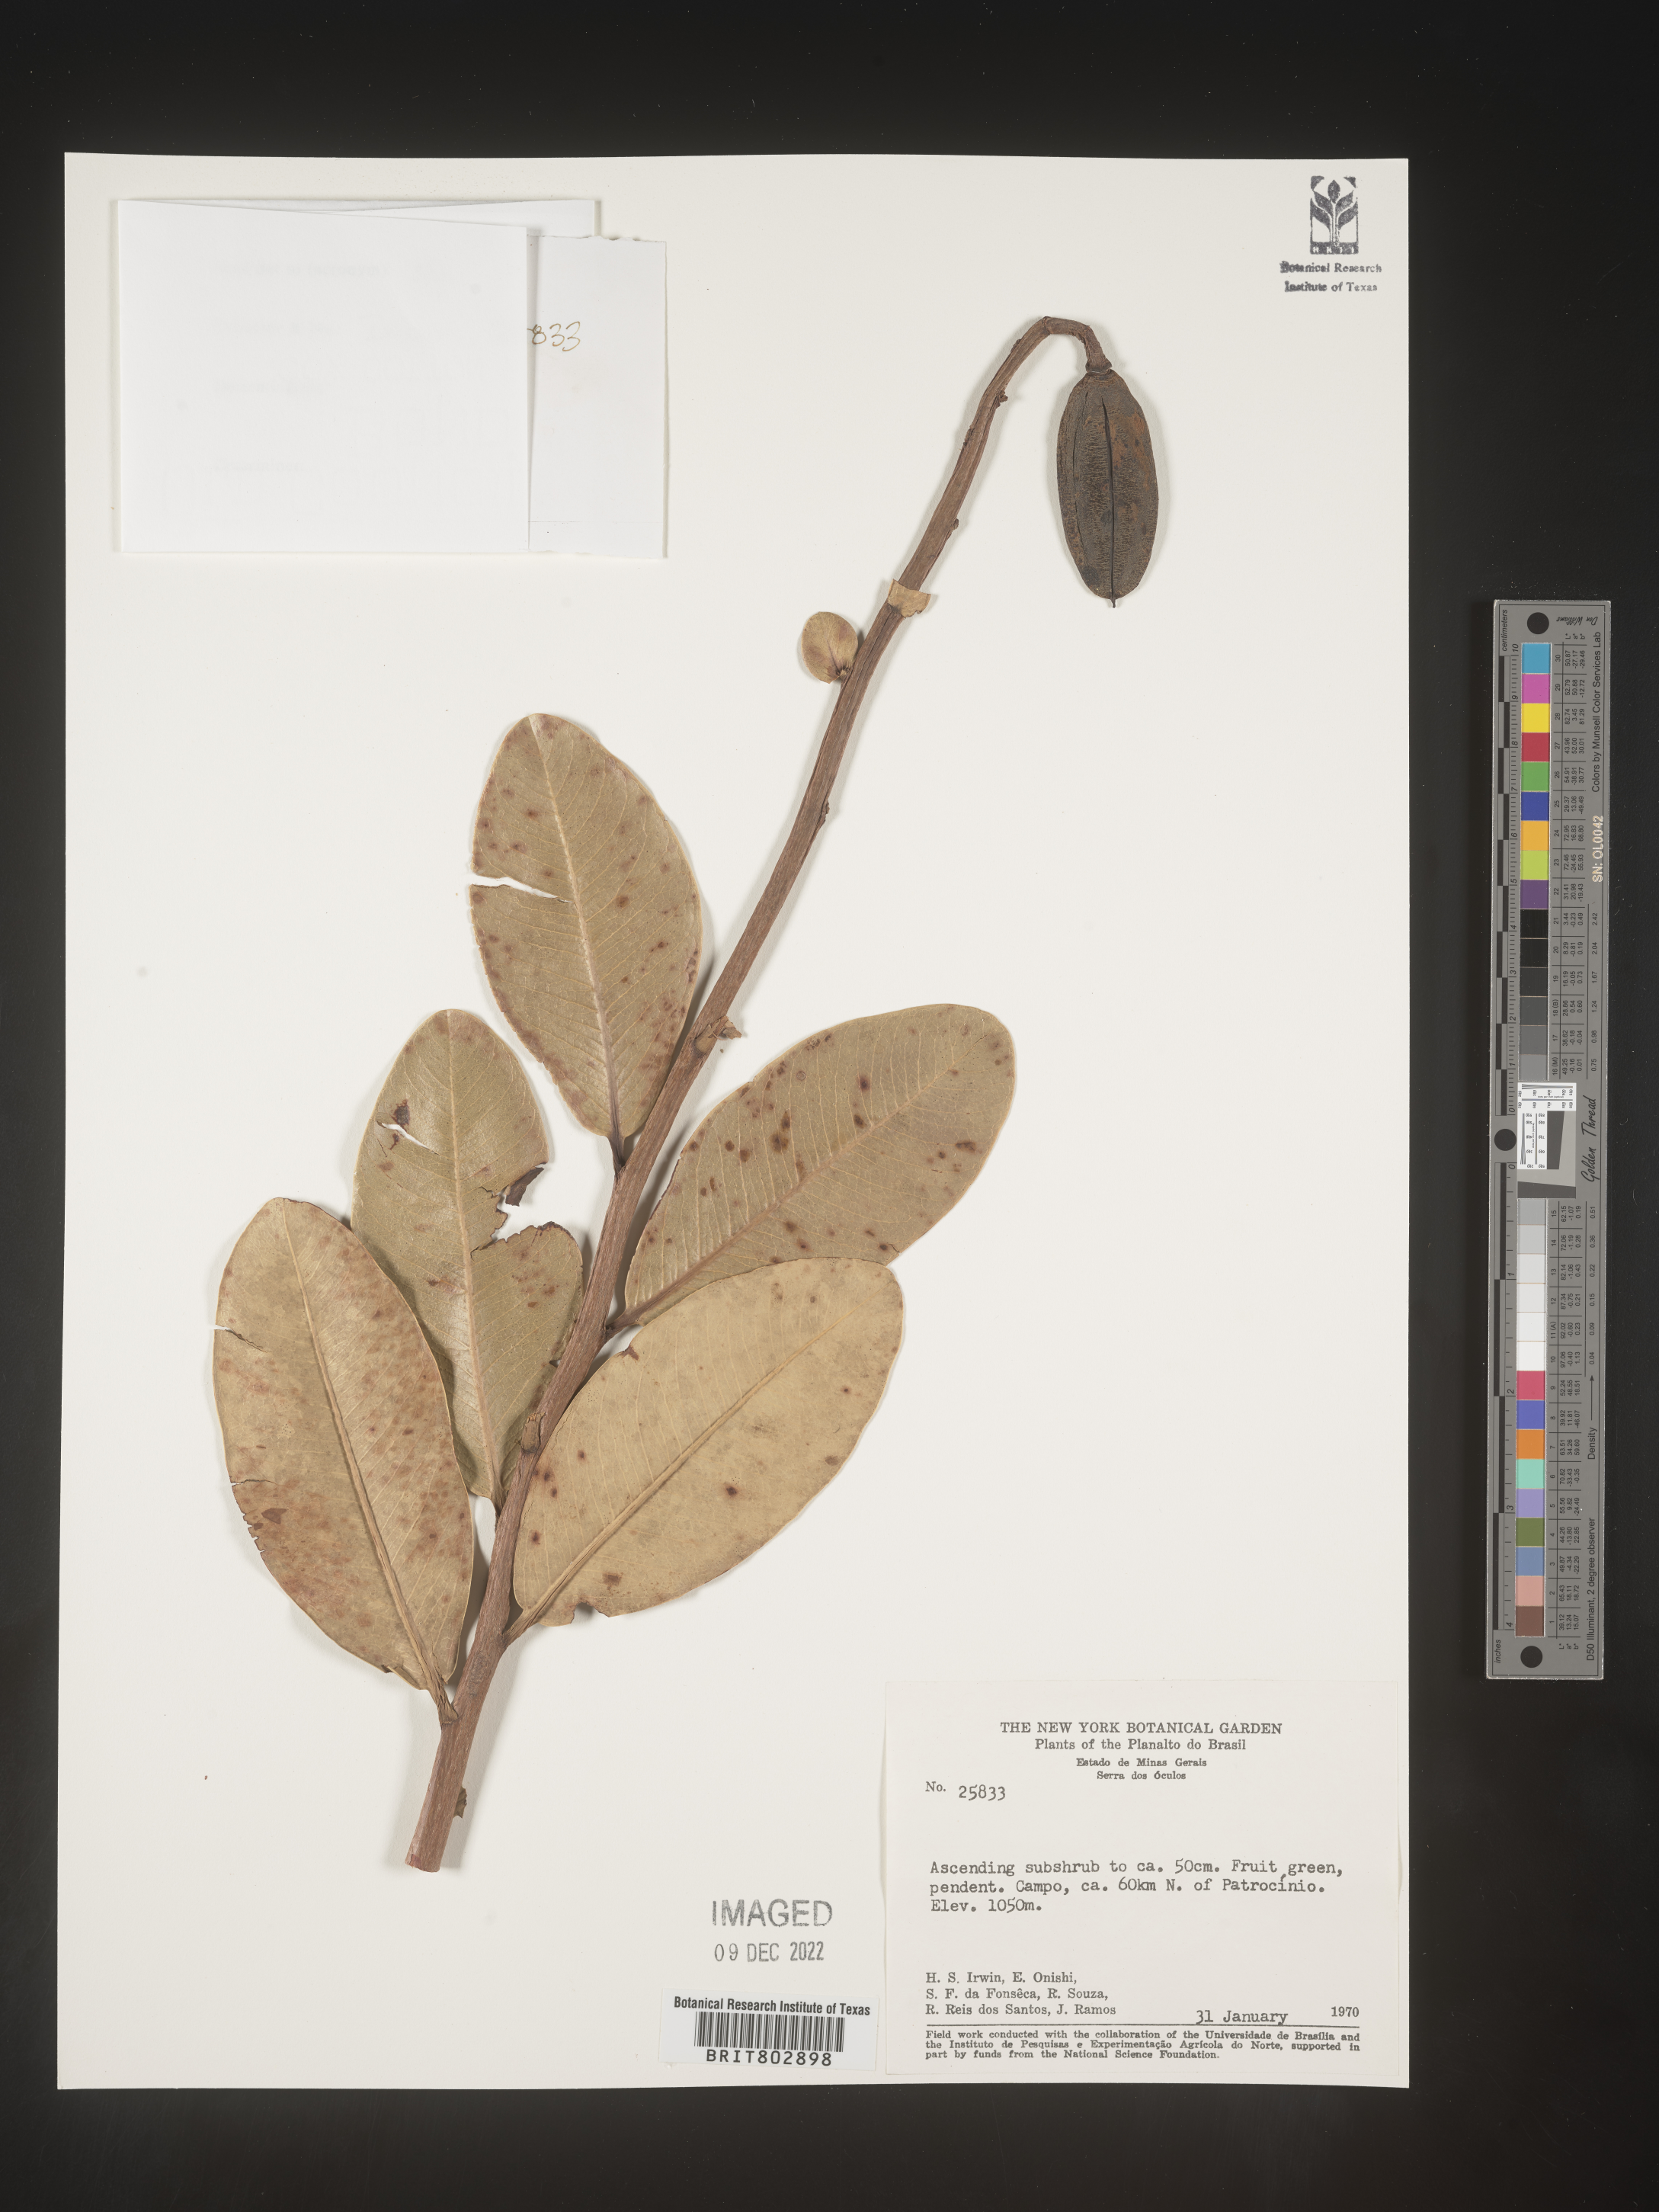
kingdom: Plantae
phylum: Tracheophyta
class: Magnoliopsida
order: Malpighiales
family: Calophyllaceae
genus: Kielmeyera
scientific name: Kielmeyera
